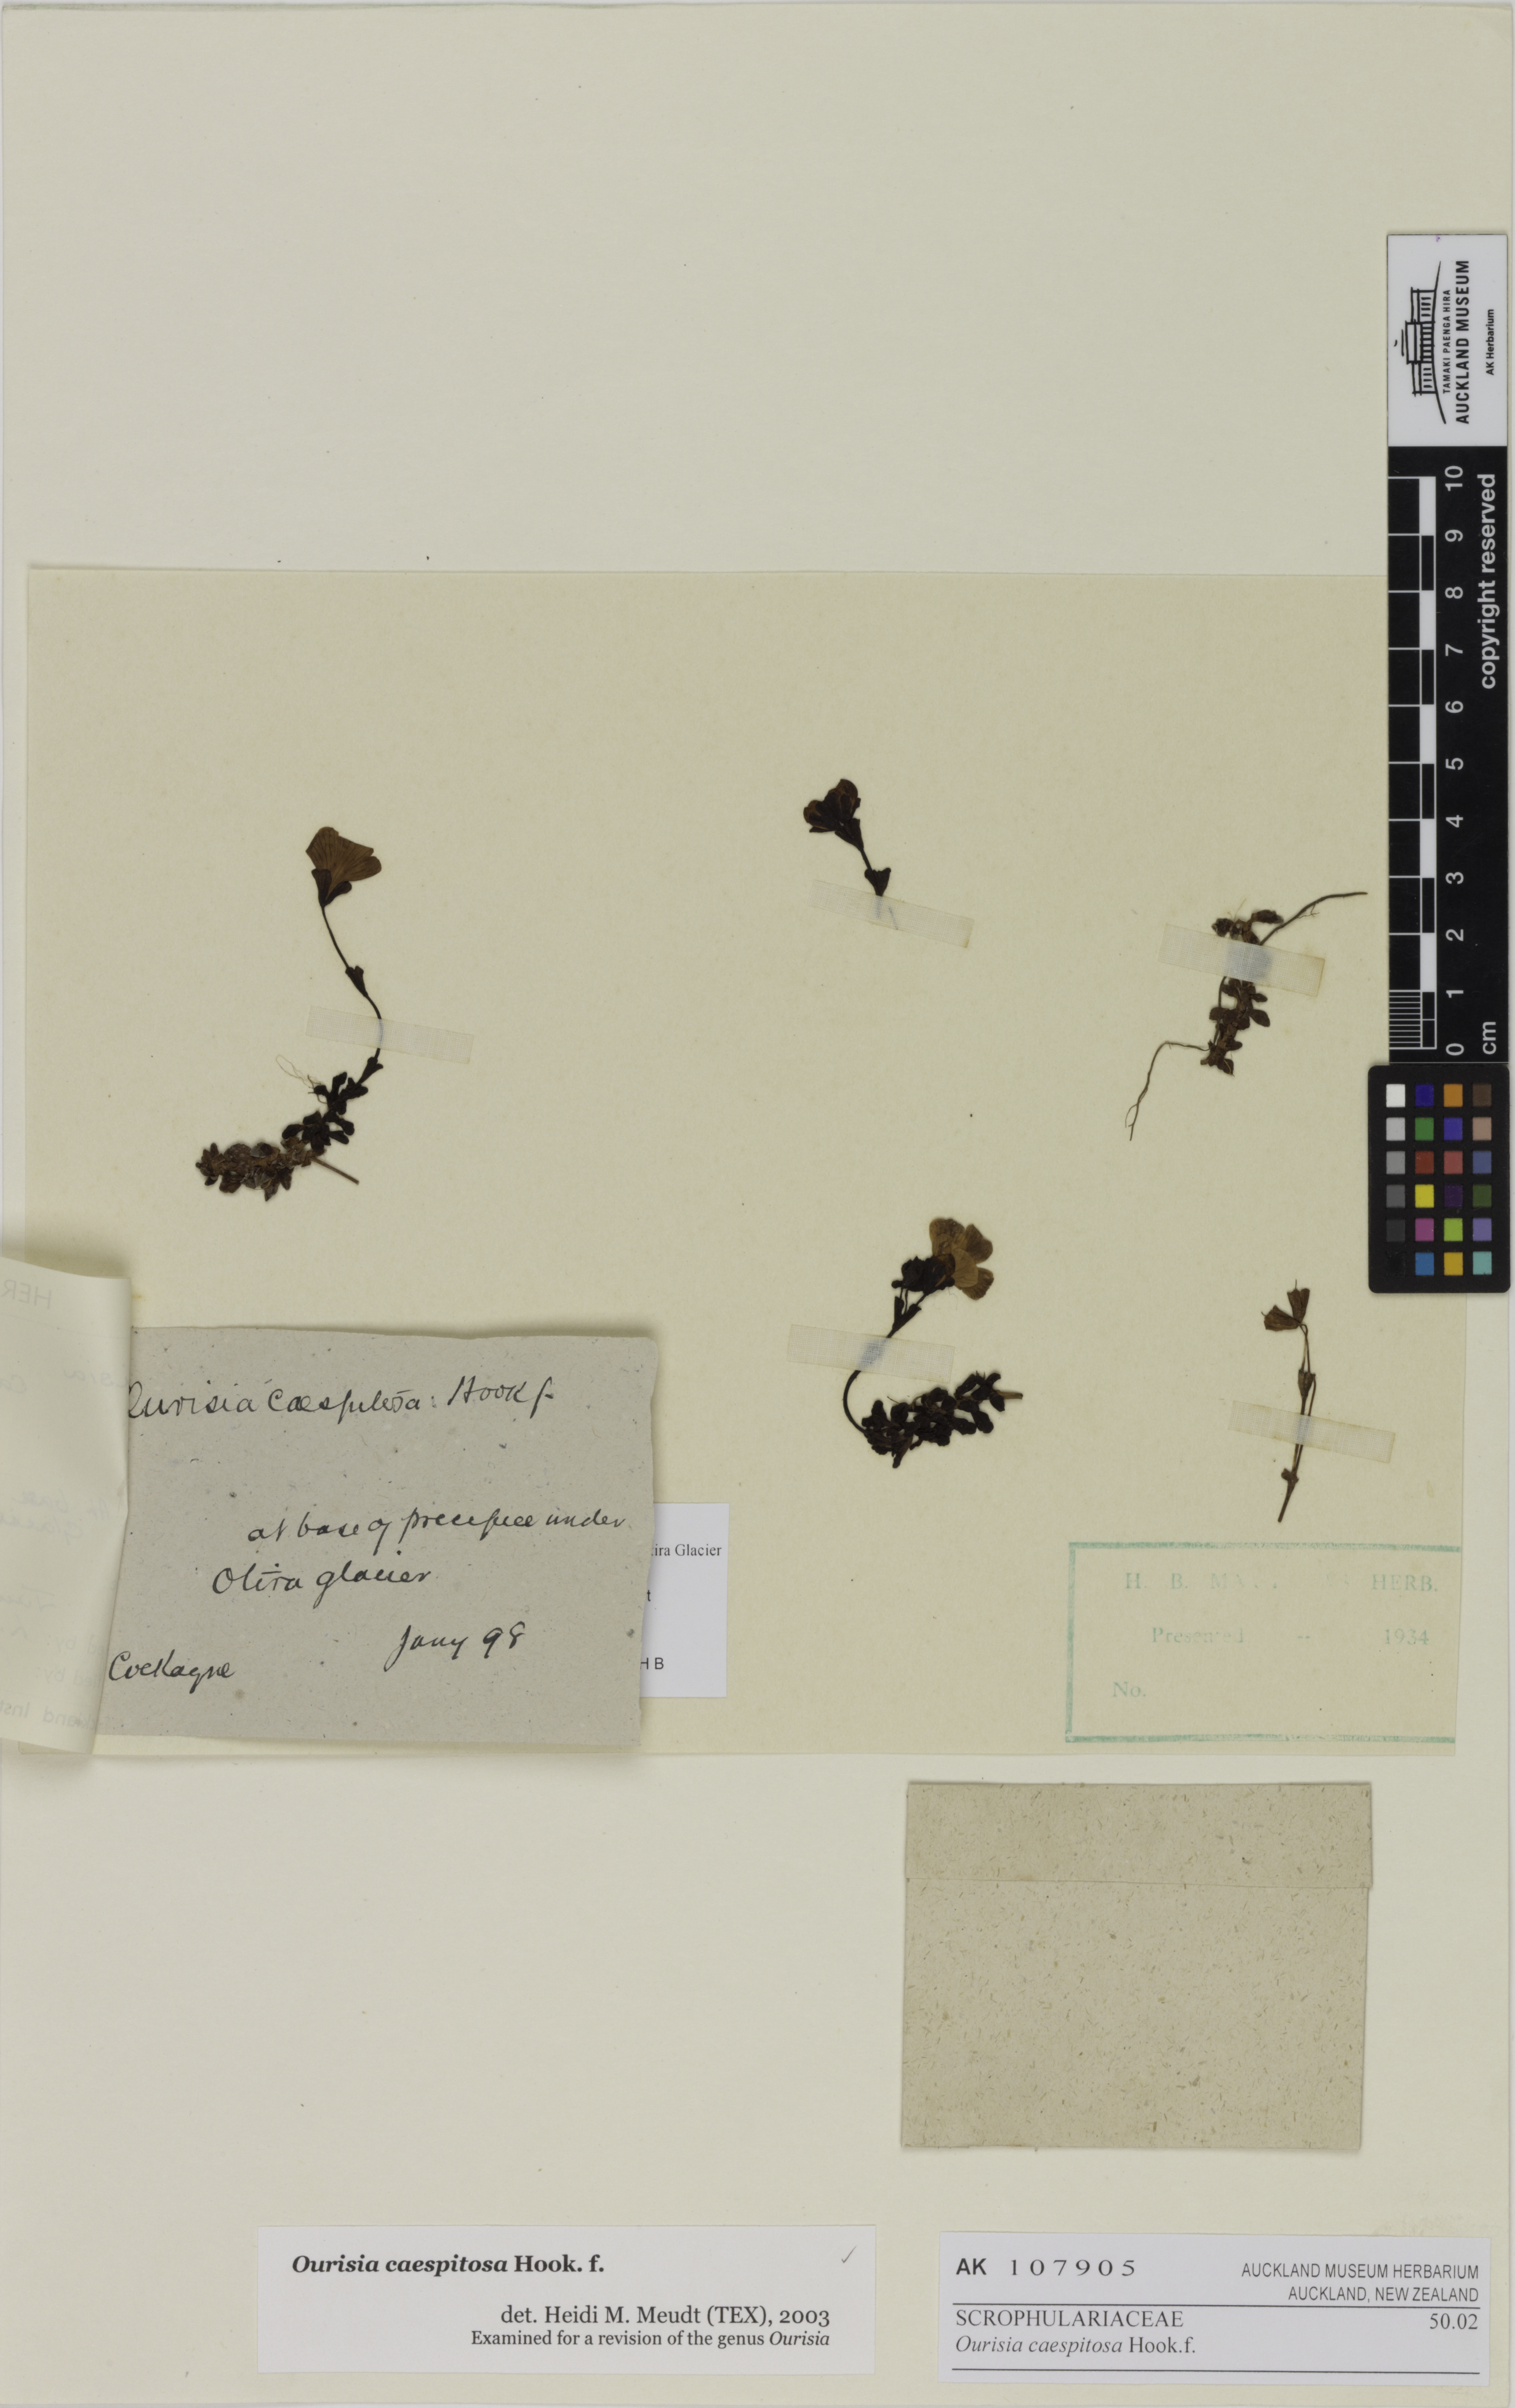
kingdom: Plantae
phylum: Tracheophyta
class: Magnoliopsida
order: Lamiales
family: Plantaginaceae
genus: Ourisia
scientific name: Ourisia caespitosa
